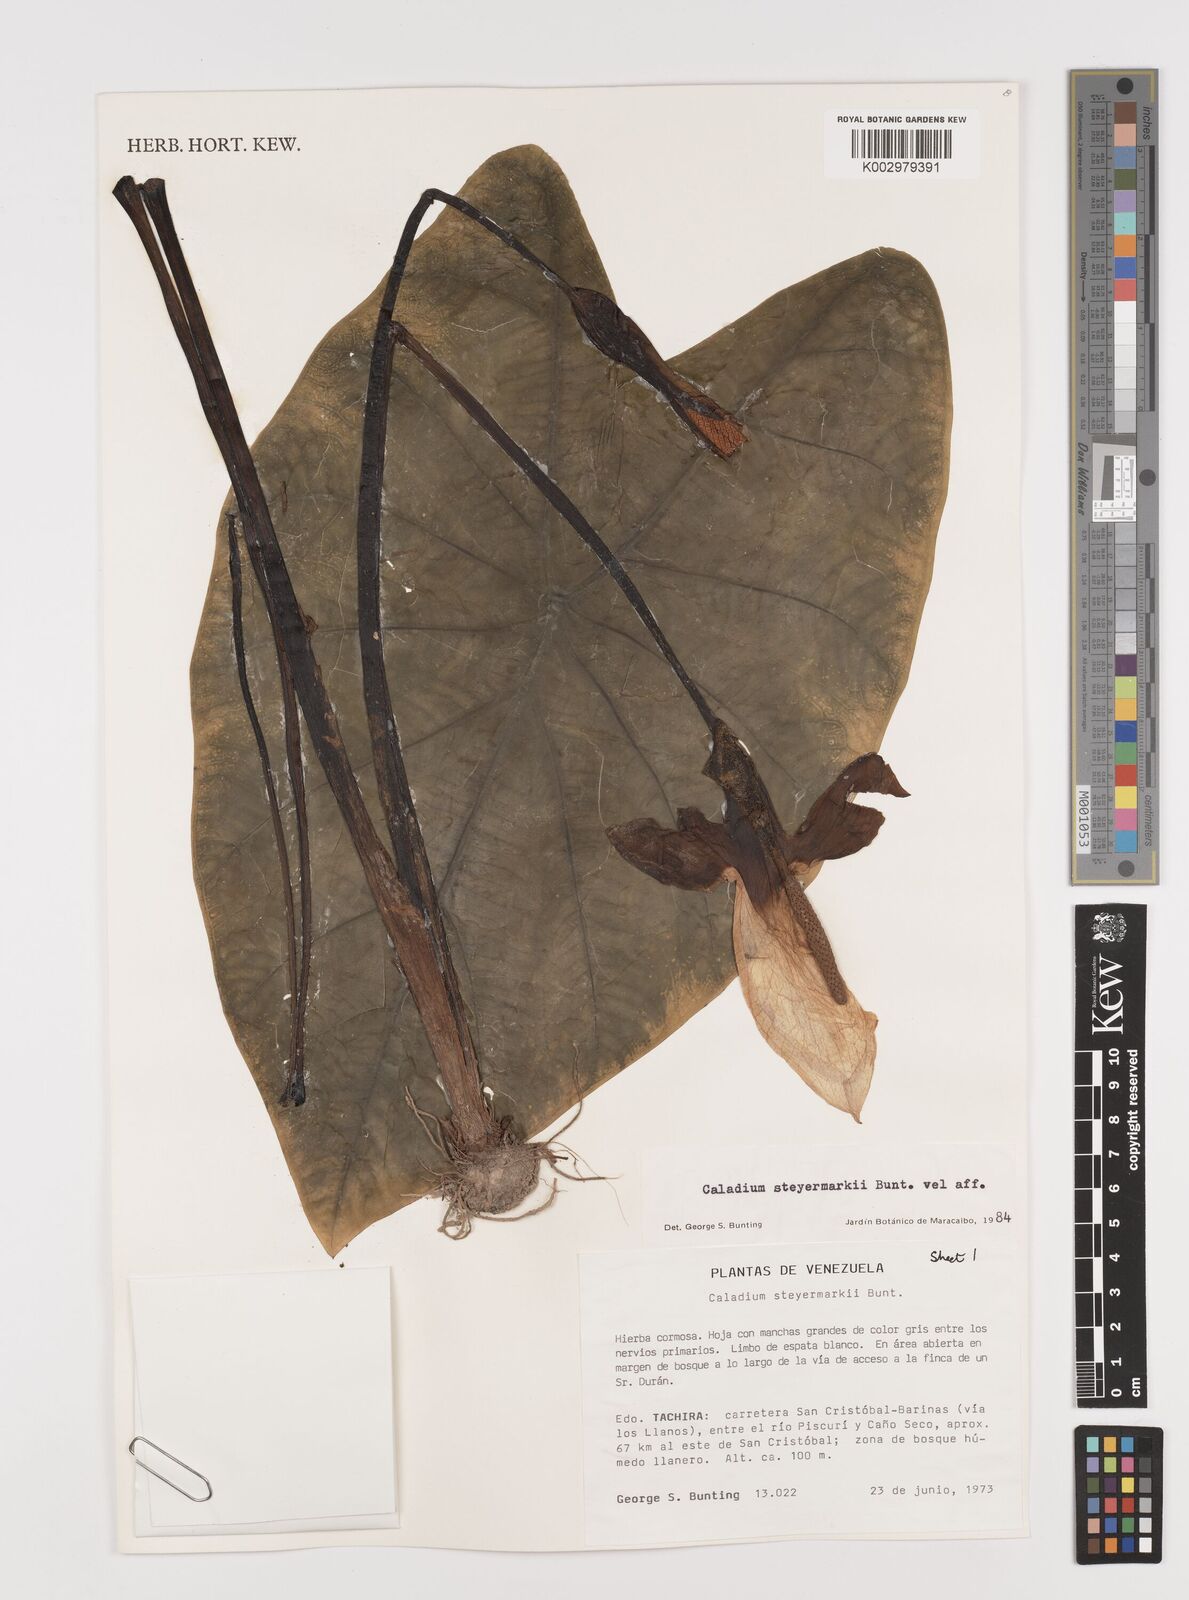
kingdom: Plantae
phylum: Tracheophyta
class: Liliopsida
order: Alismatales
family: Araceae
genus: Caladium
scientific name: Caladium steyermarkii
